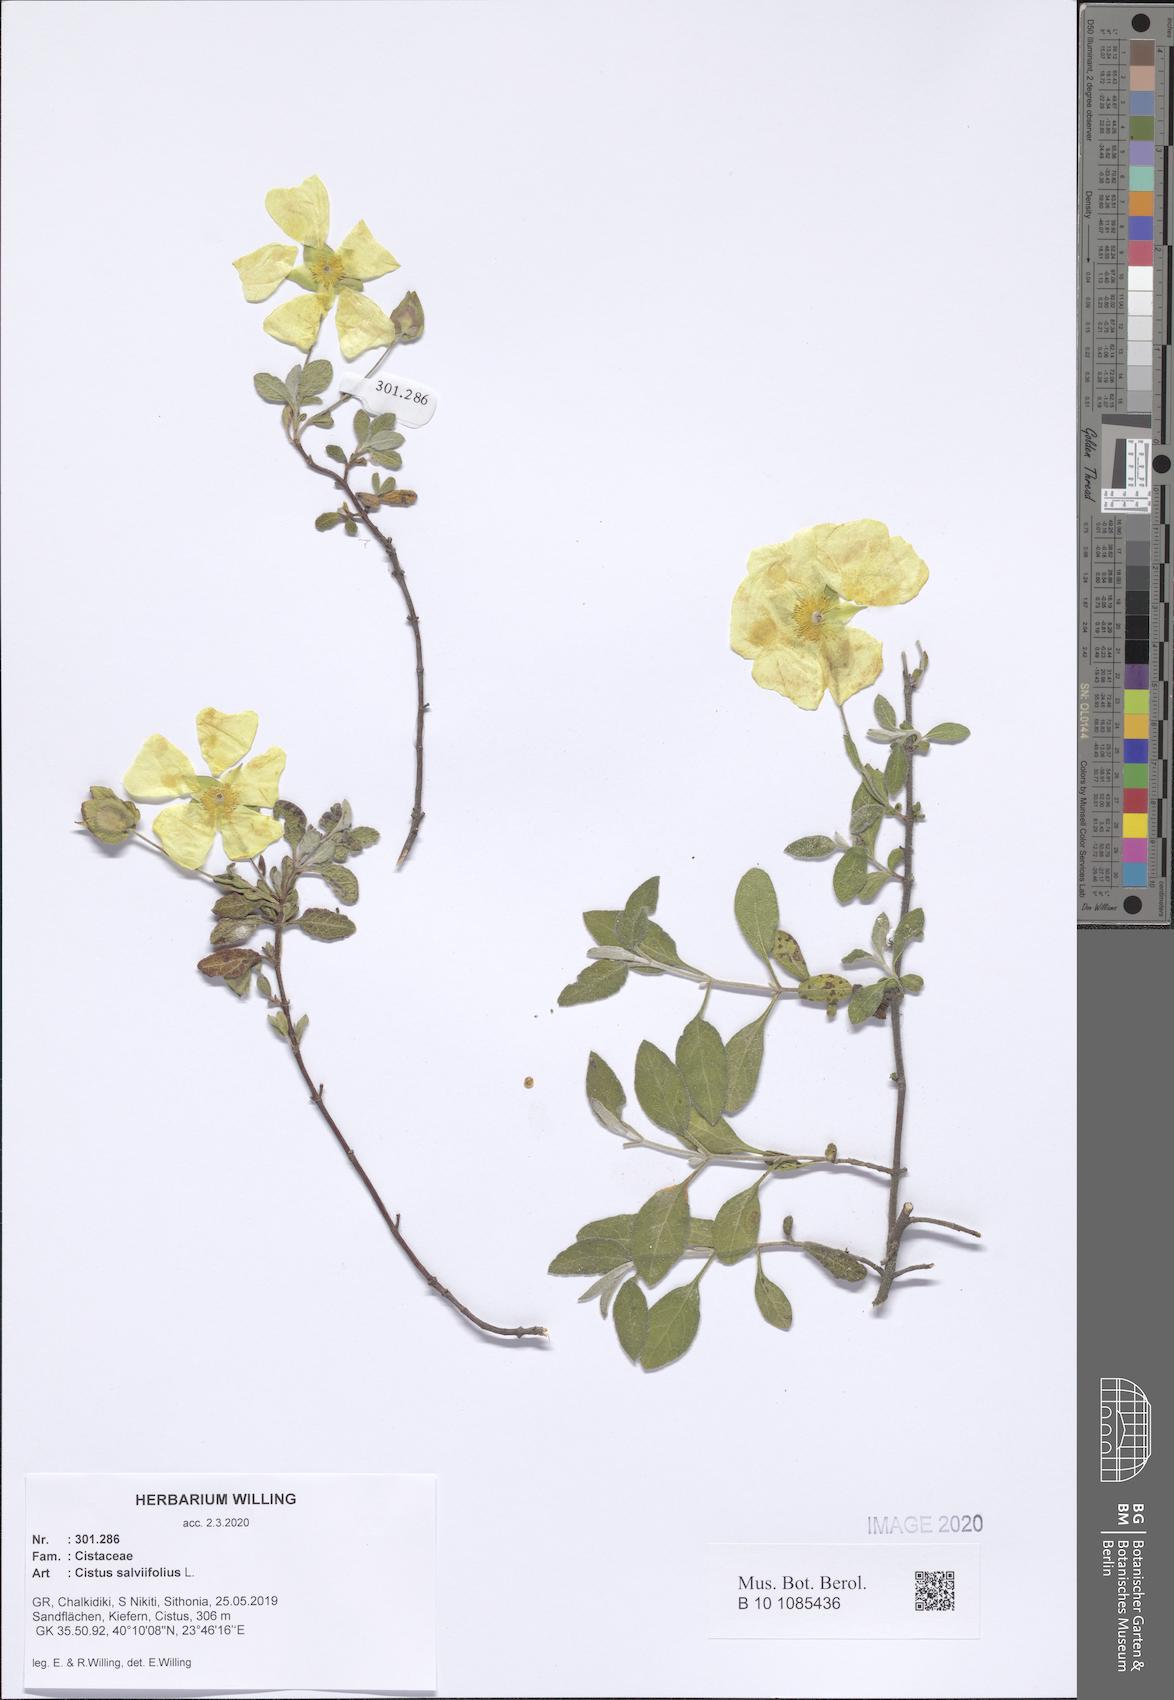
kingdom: Plantae
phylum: Tracheophyta
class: Magnoliopsida
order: Malvales
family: Cistaceae
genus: Cistus
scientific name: Cistus salviifolius
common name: Salvia cistus
